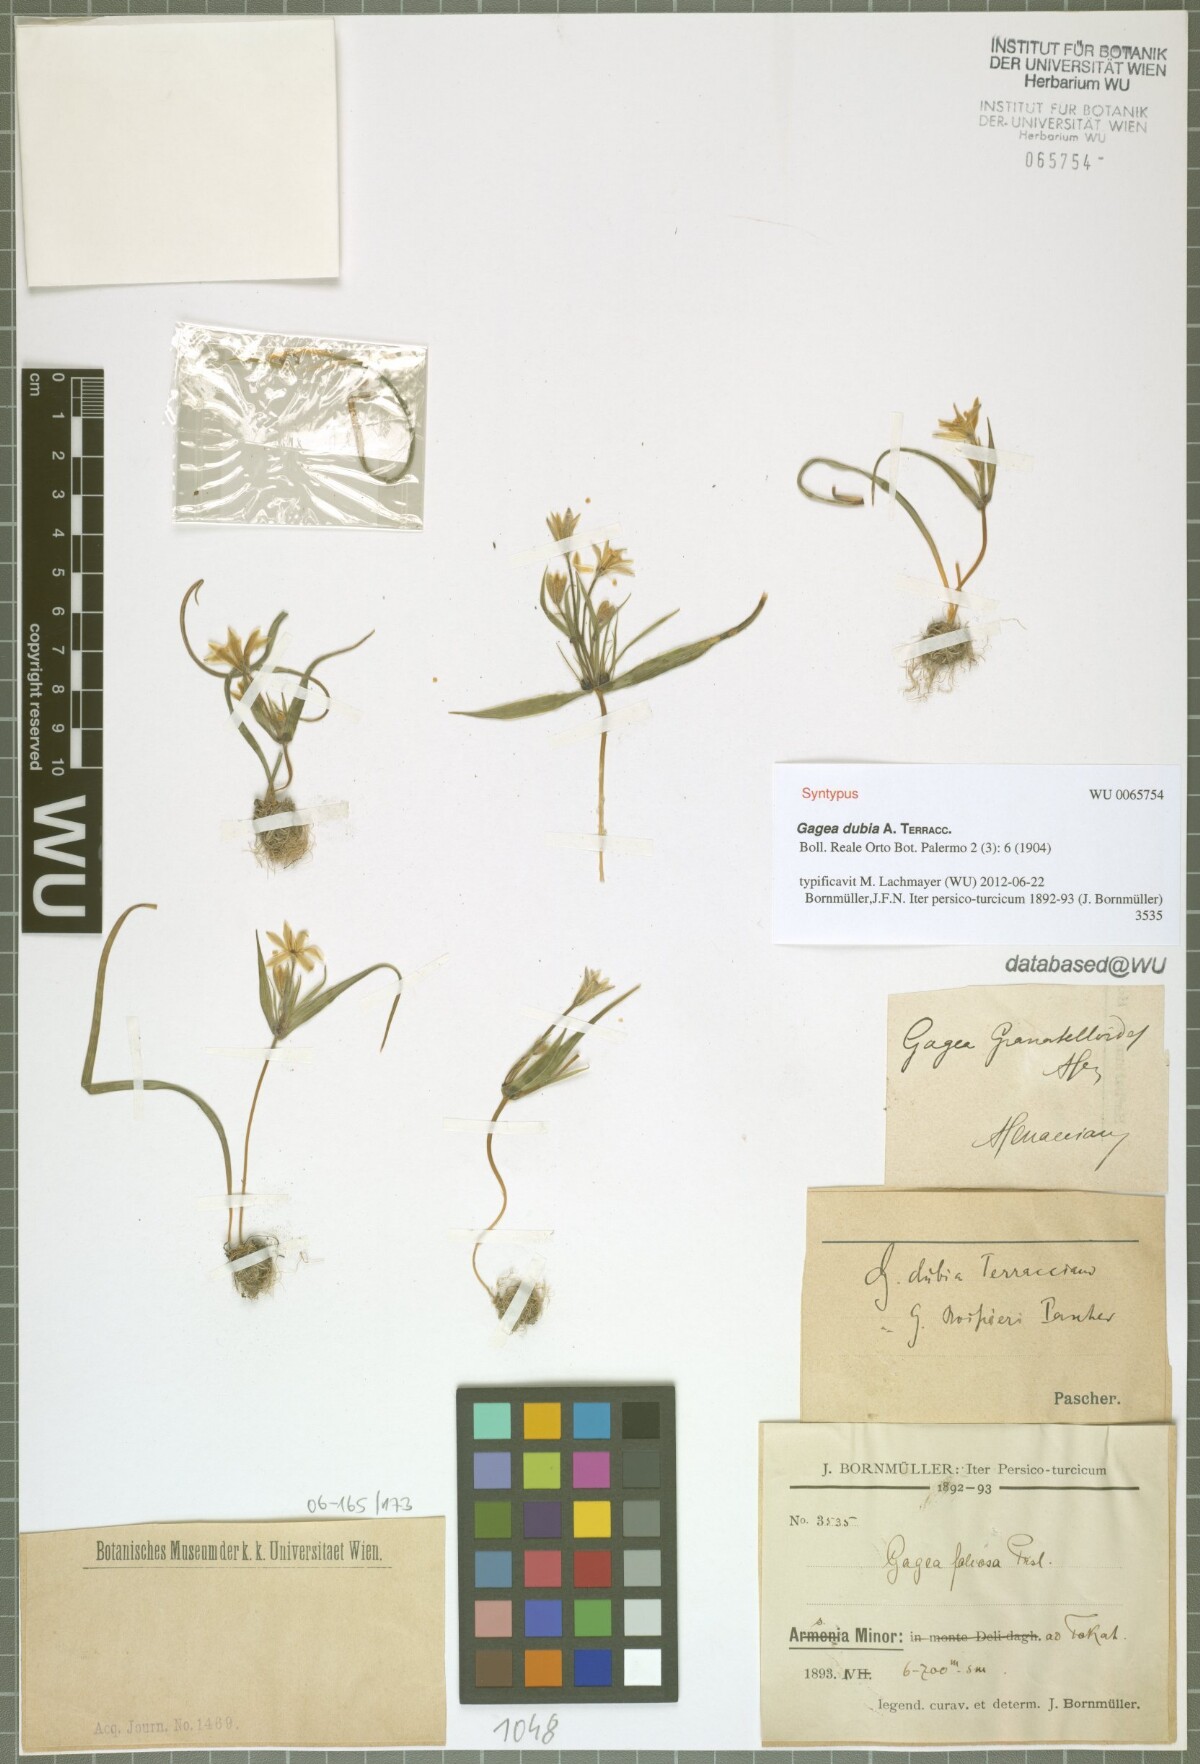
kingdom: Plantae
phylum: Tracheophyta
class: Liliopsida
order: Liliales
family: Liliaceae
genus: Gagea
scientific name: Gagea dubia
